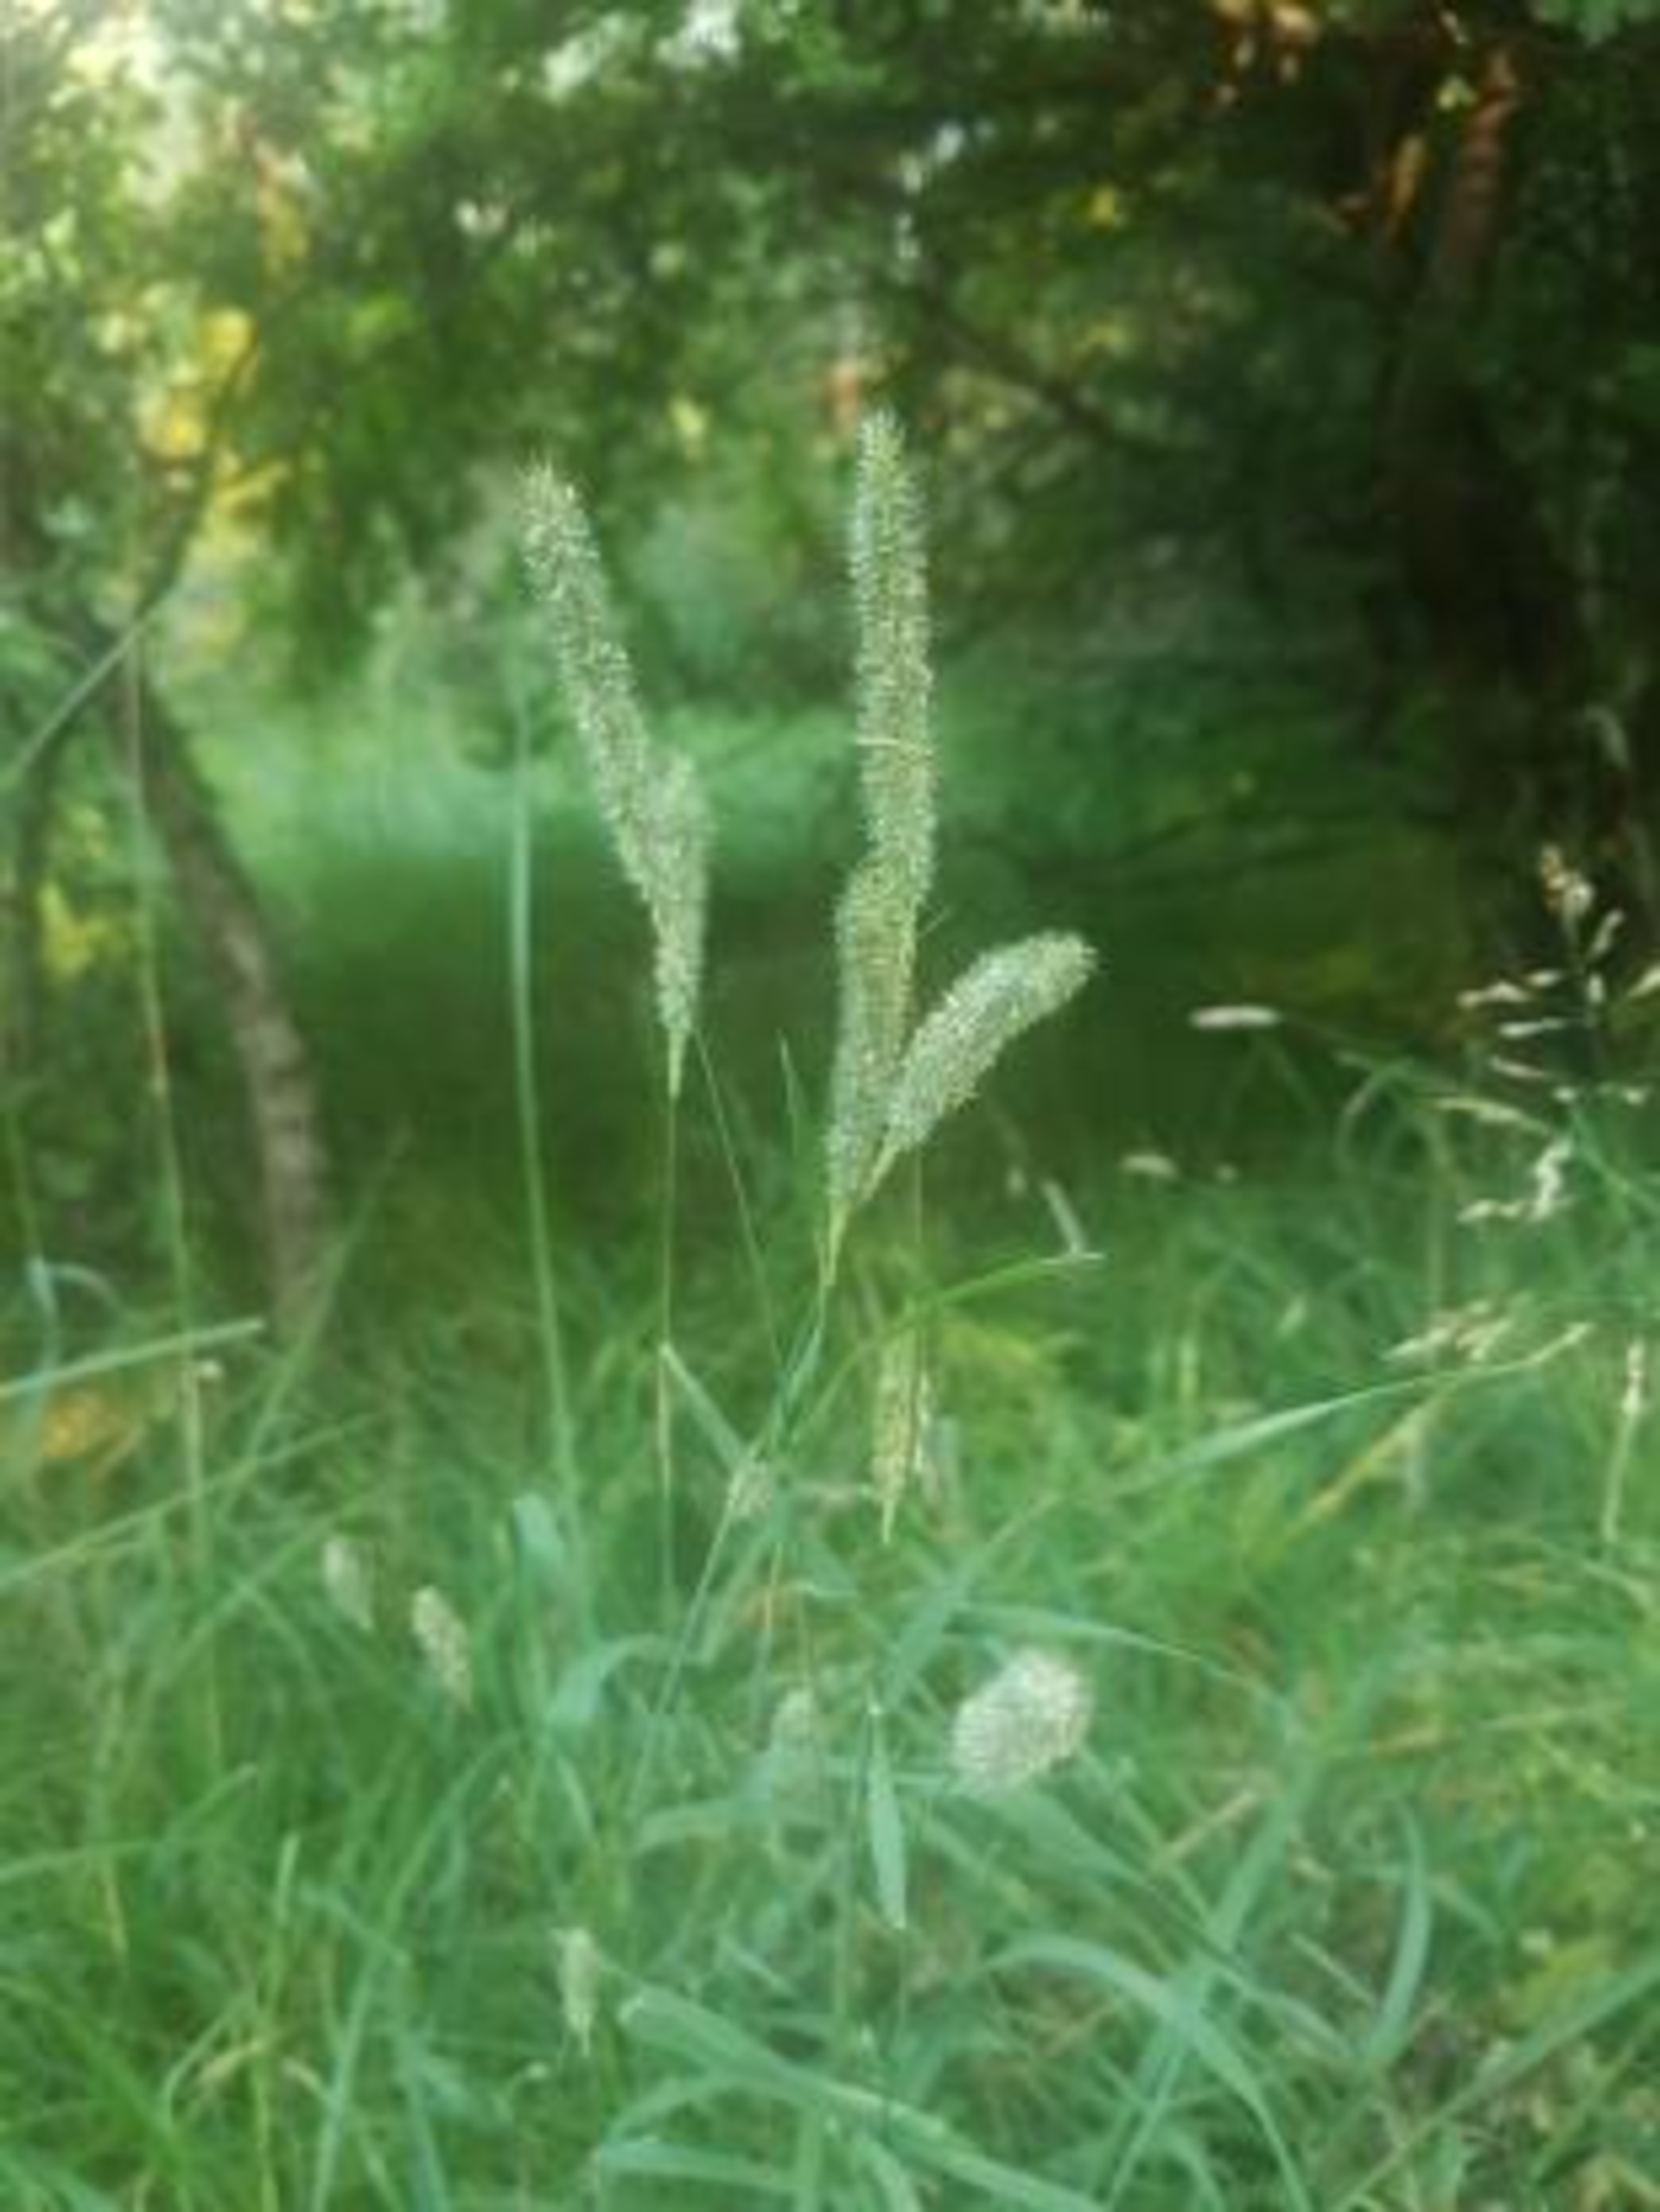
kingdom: Plantae
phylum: Tracheophyta
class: Liliopsida
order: Poales
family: Poaceae
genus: Phleum
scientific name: Phleum pratense
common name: Eng-rottehale
